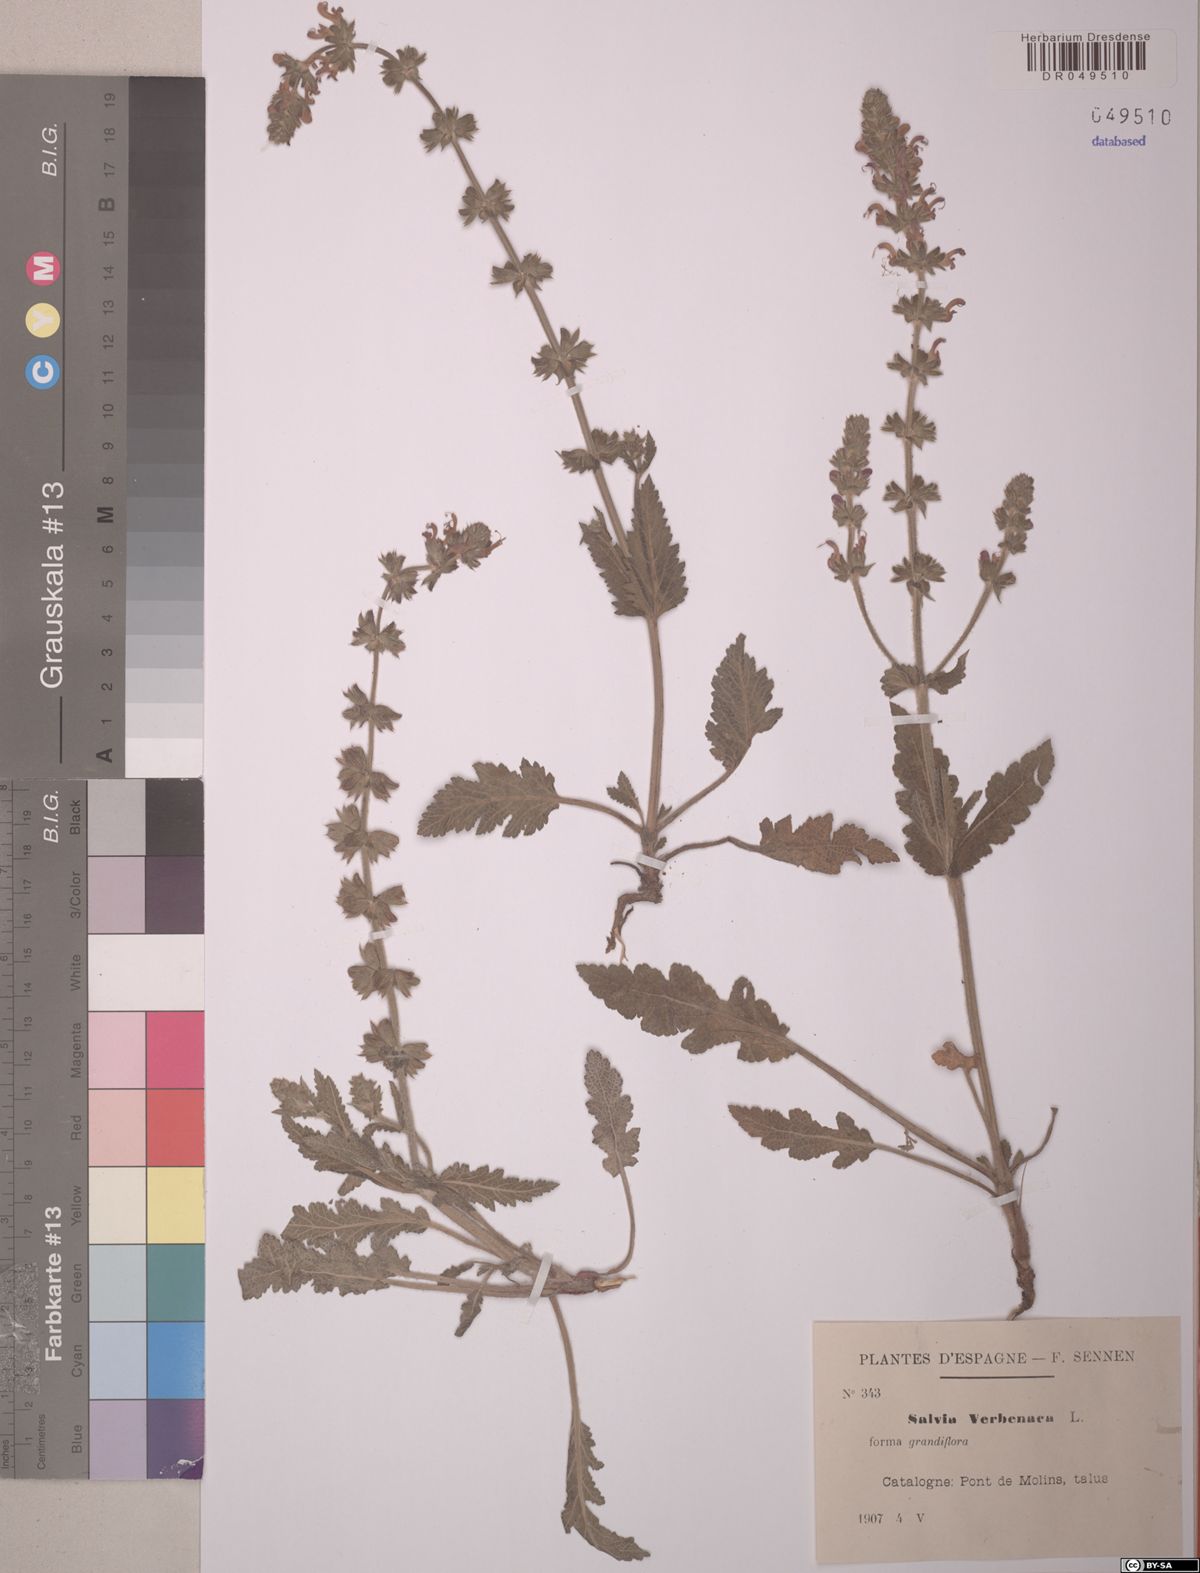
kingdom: Plantae
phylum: Tracheophyta
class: Magnoliopsida
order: Lamiales
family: Lamiaceae
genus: Salvia
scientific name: Salvia verbenaca
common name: Wild clary
